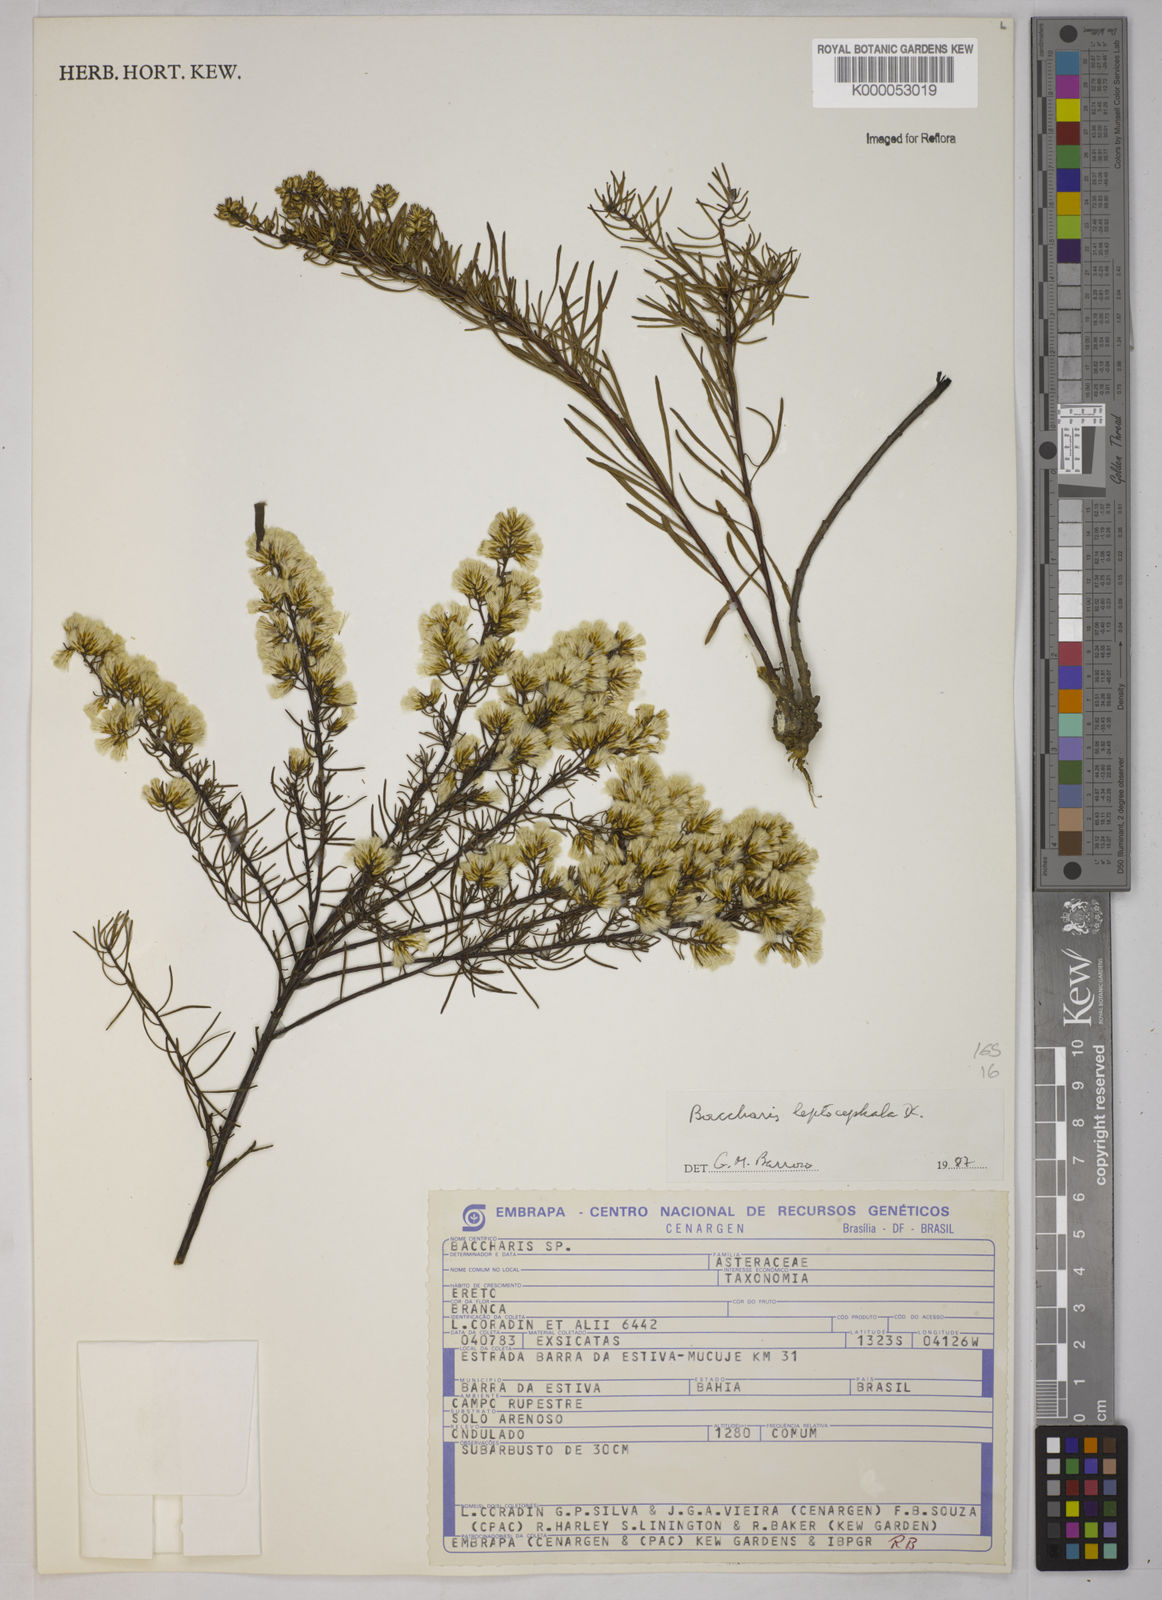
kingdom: Plantae
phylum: Tracheophyta
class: Magnoliopsida
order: Asterales
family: Asteraceae
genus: Baccharis
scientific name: Baccharis leptocephala
